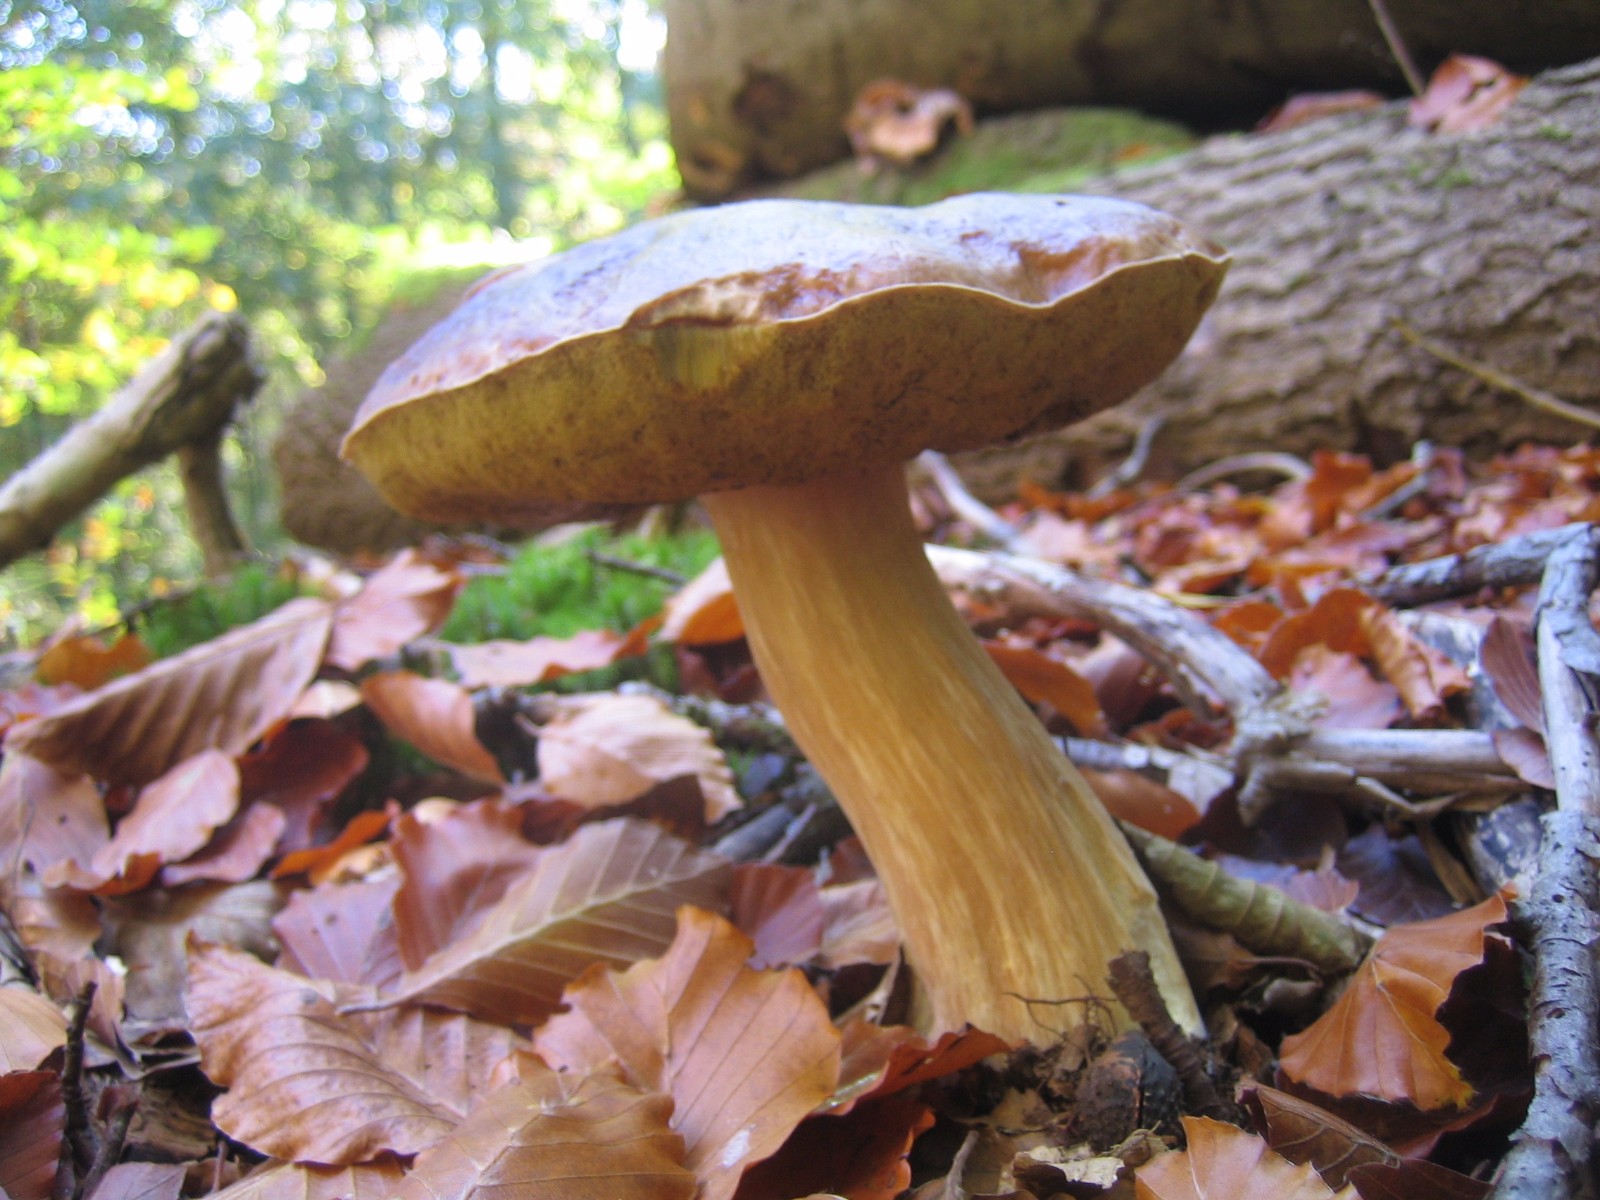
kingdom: Fungi
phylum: Basidiomycota
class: Agaricomycetes
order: Boletales
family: Boletaceae
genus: Boletus
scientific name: Boletus edulis
